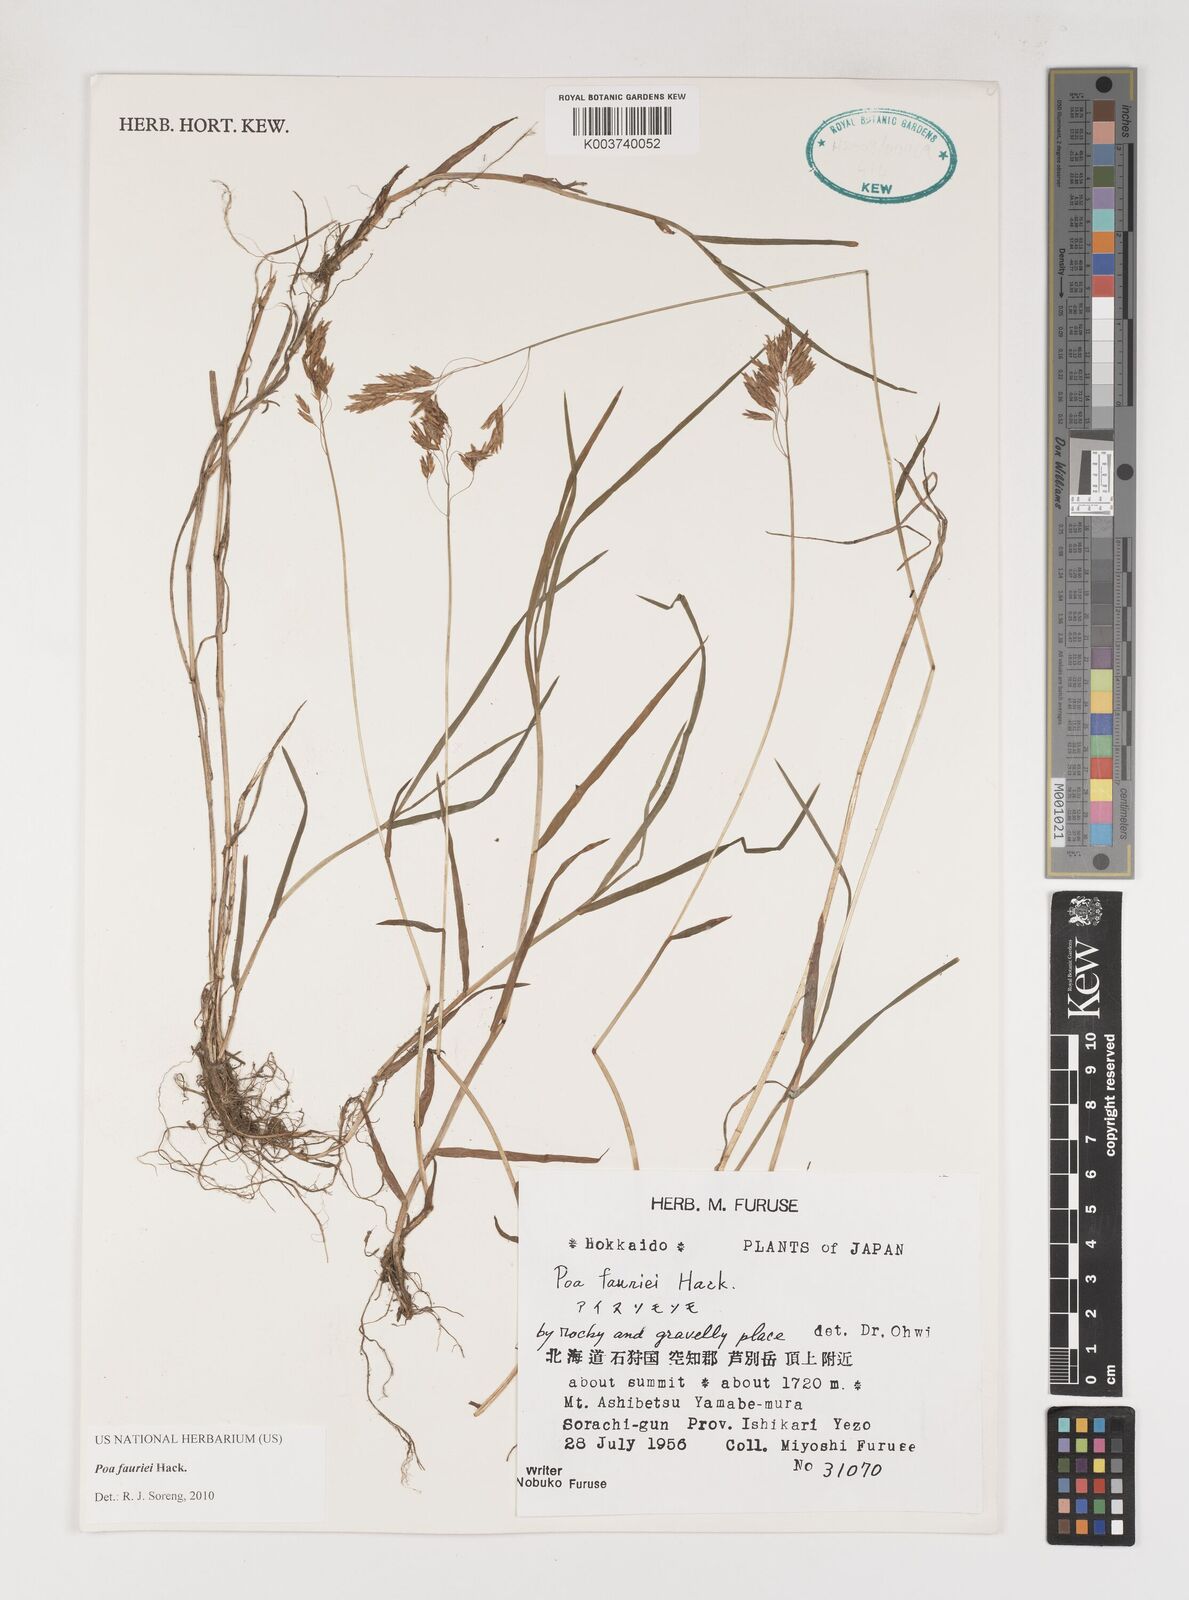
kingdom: Plantae
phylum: Tracheophyta
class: Liliopsida
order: Poales
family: Poaceae
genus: Poa
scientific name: Poa fauriei
